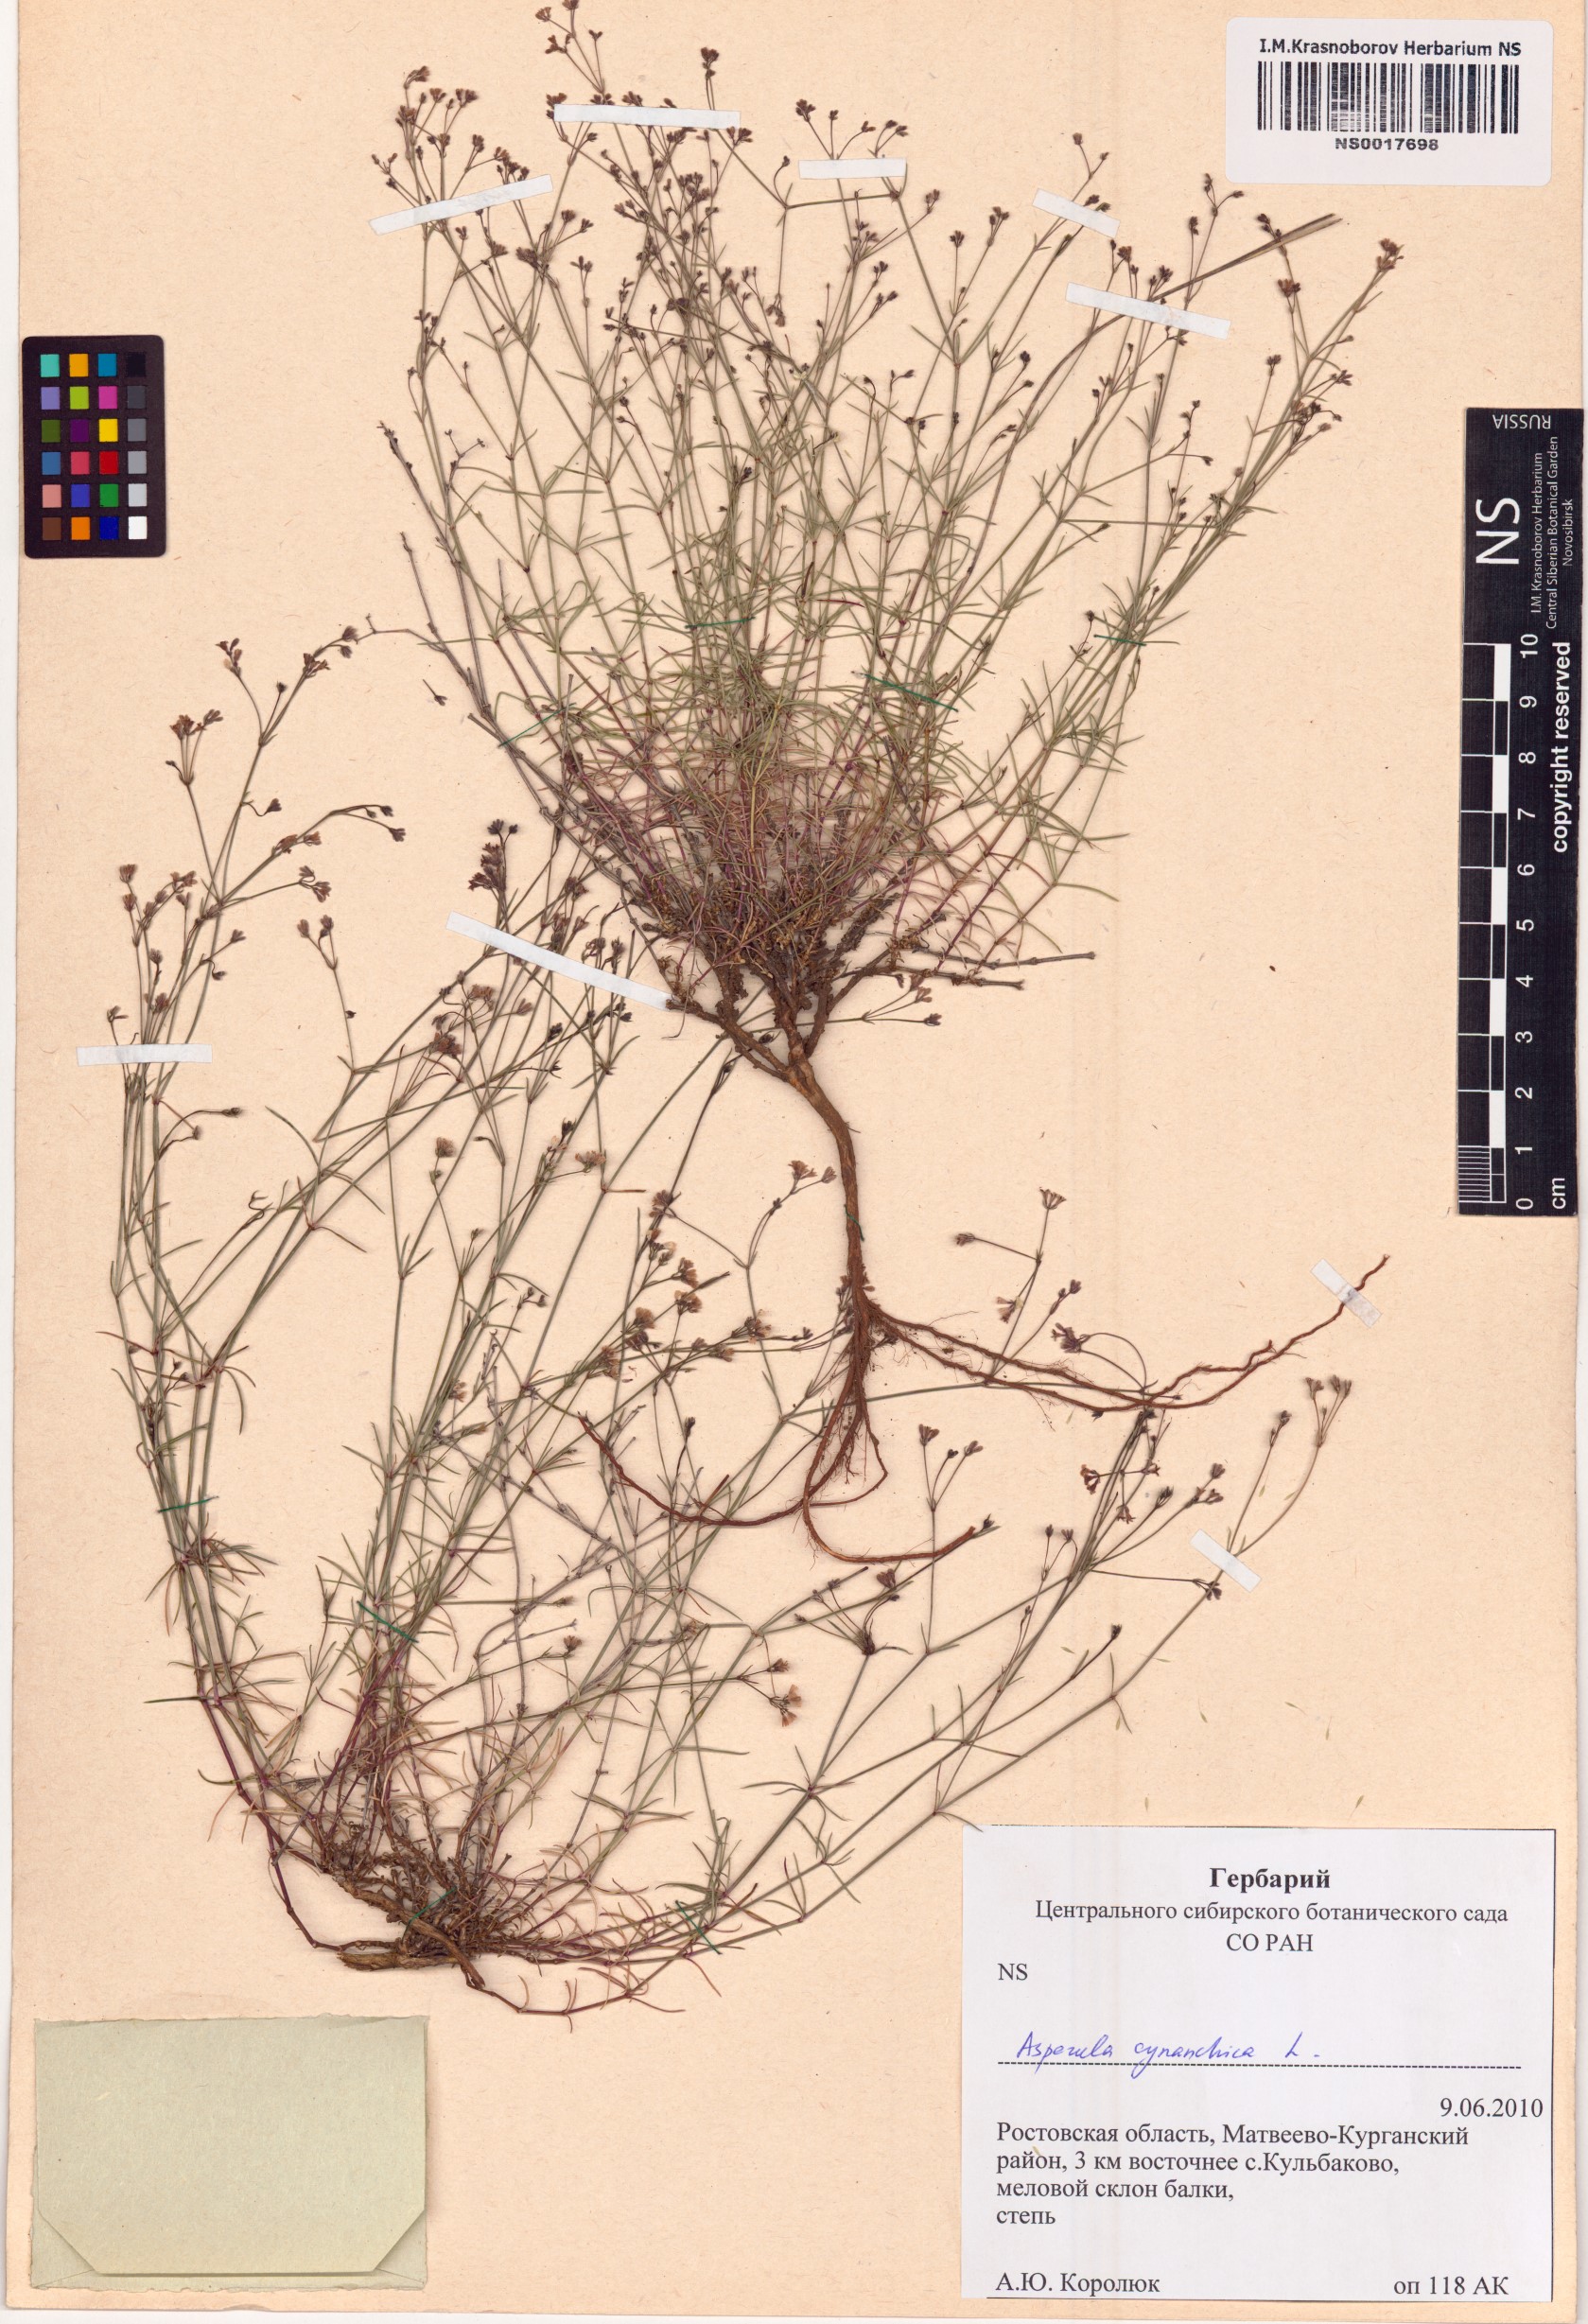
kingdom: Plantae
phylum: Tracheophyta
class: Magnoliopsida
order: Gentianales
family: Rubiaceae
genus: Cynanchica
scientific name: Cynanchica pyrenaica
